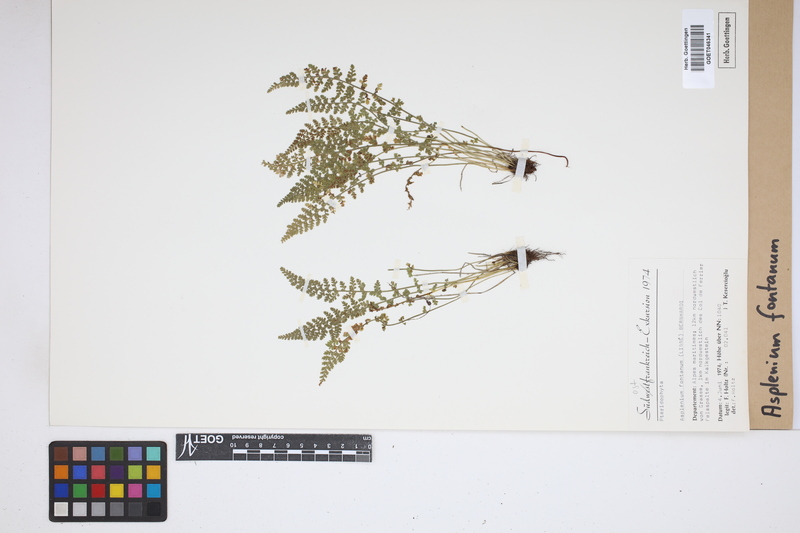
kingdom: Plantae
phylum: Tracheophyta
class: Polypodiopsida
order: Polypodiales
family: Aspleniaceae
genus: Asplenium
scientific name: Asplenium fontanum
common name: Fountain spleenwort
